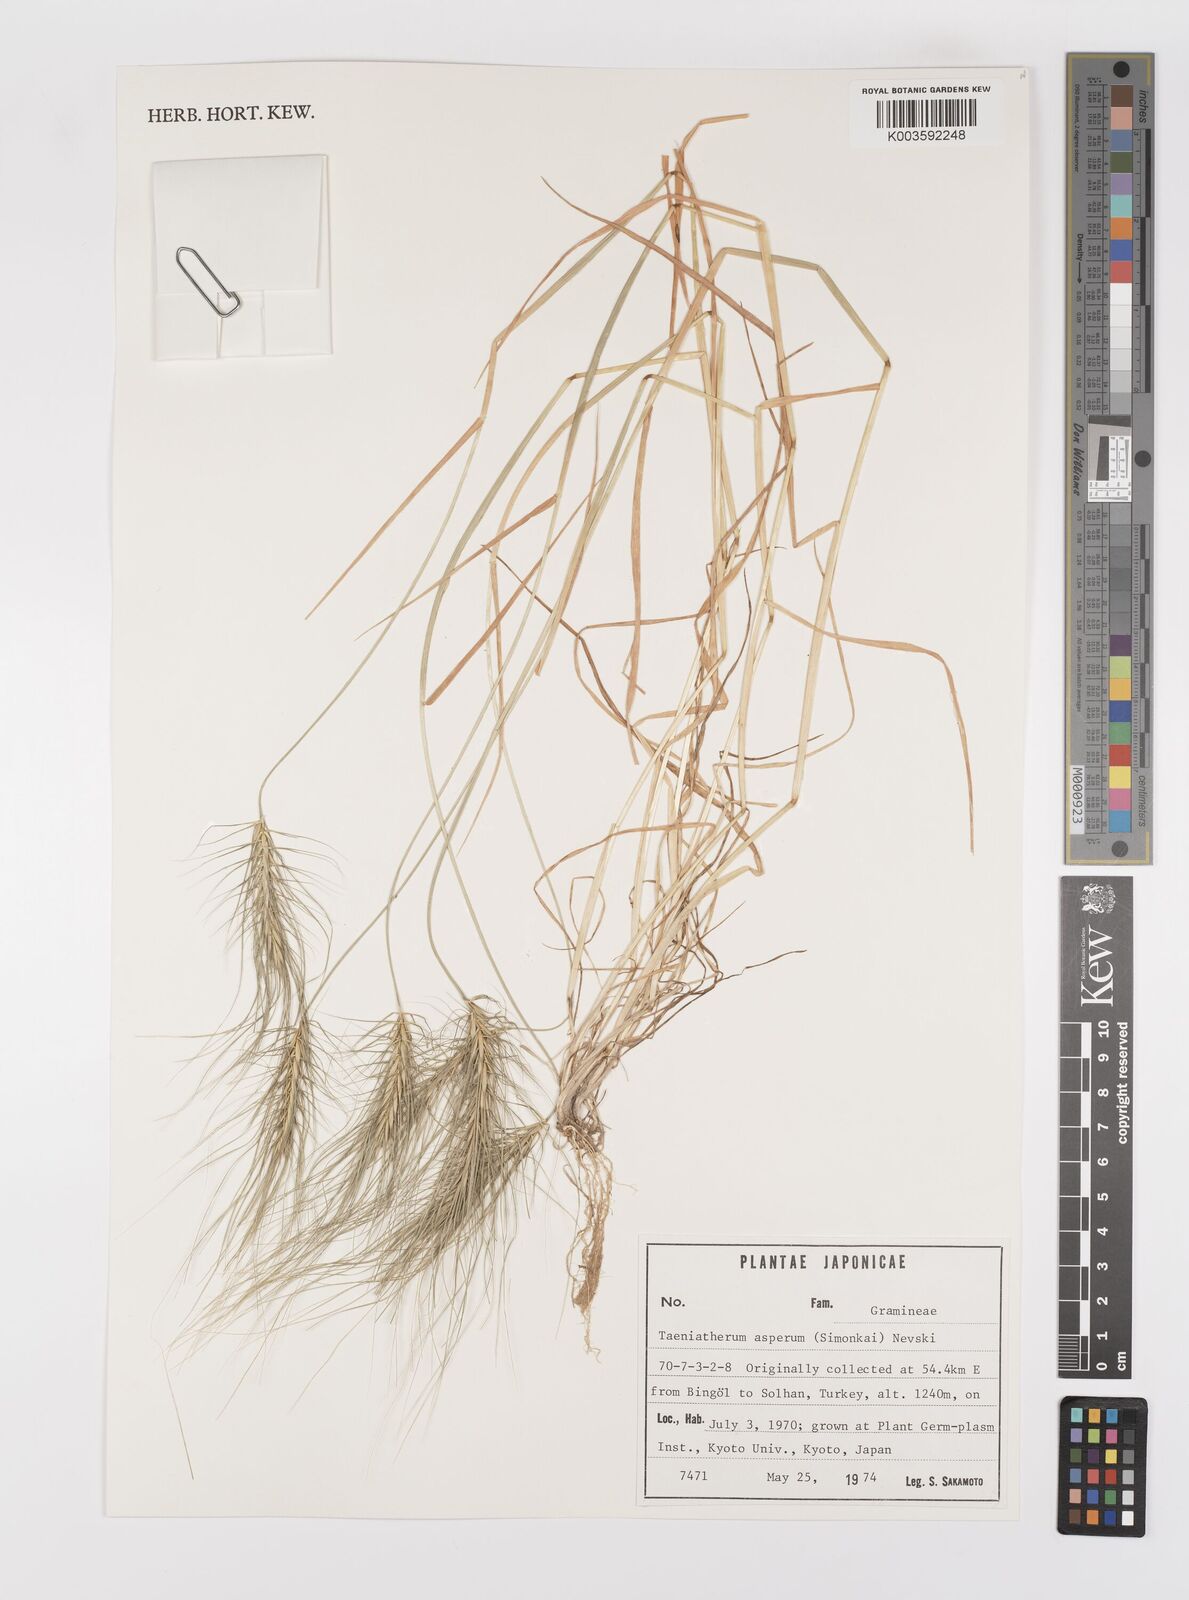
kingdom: Plantae
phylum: Tracheophyta
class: Liliopsida
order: Poales
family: Poaceae
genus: Taeniatherum
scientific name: Taeniatherum caput-medusae
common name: Medusahead
